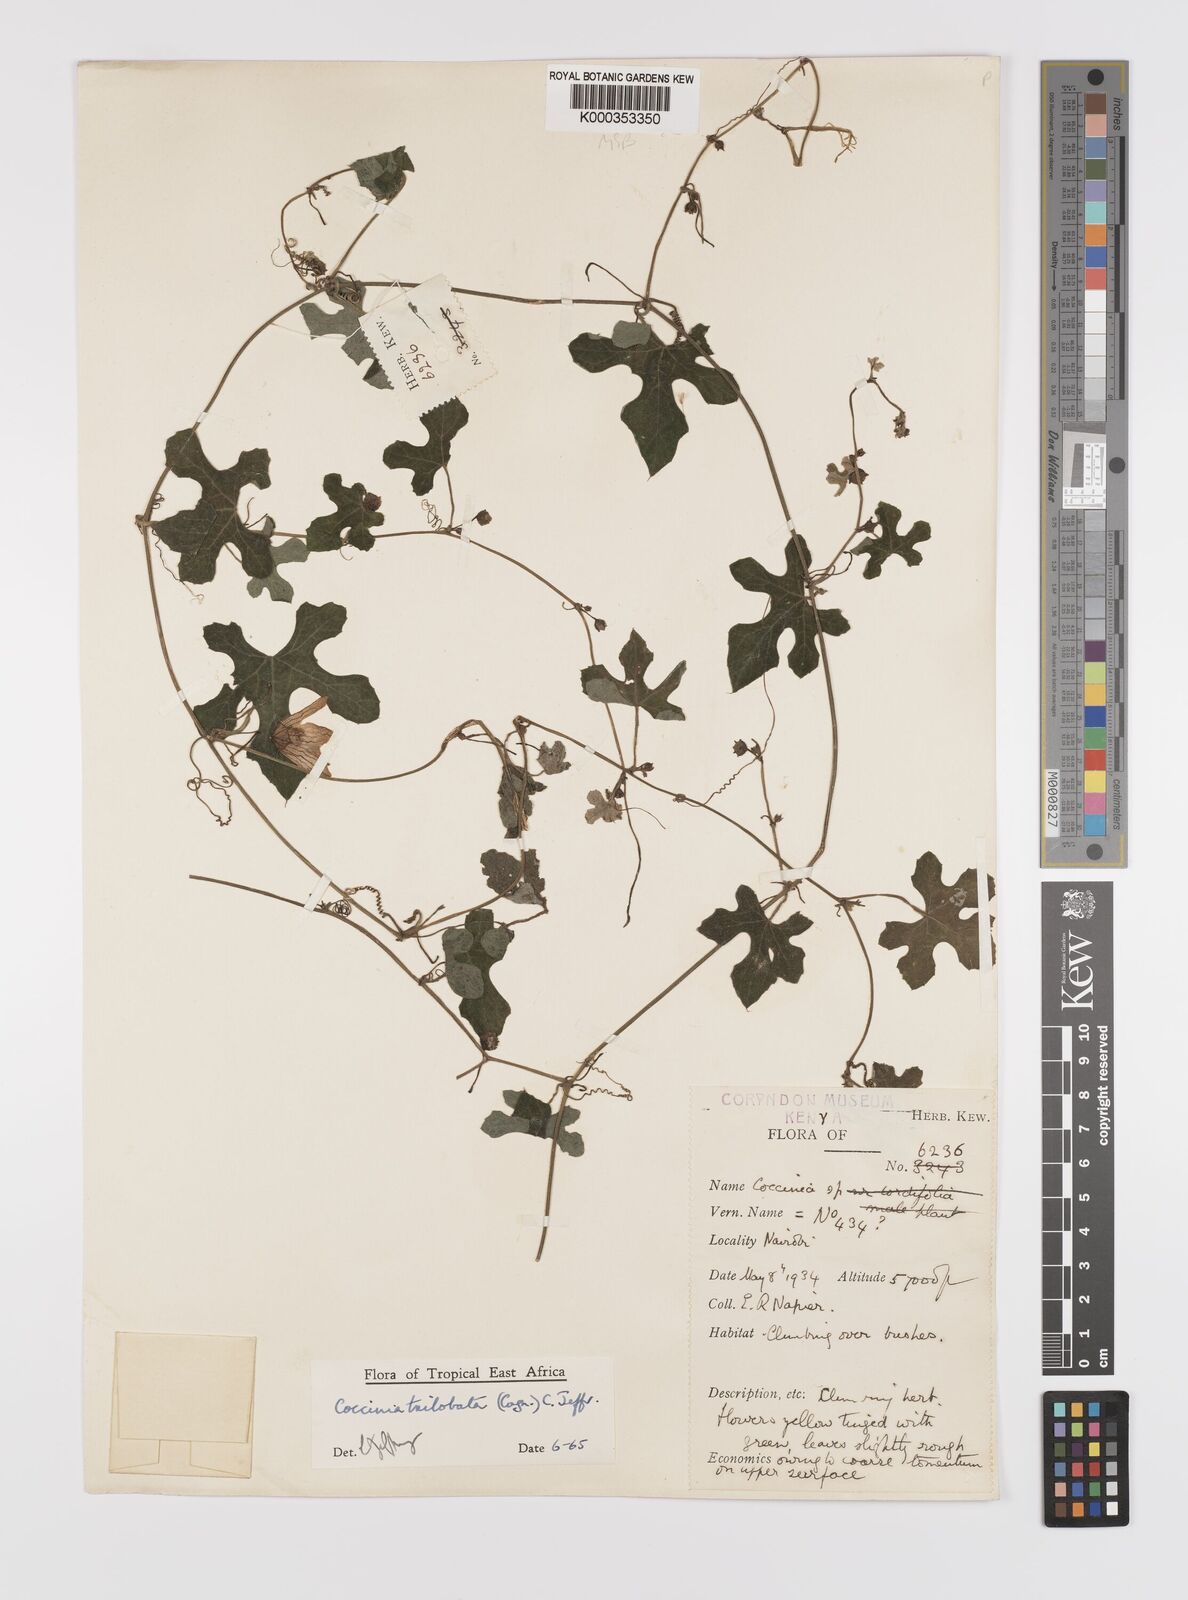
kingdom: Plantae
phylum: Tracheophyta
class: Magnoliopsida
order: Cucurbitales
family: Cucurbitaceae
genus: Coccinia
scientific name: Coccinia trilobata
